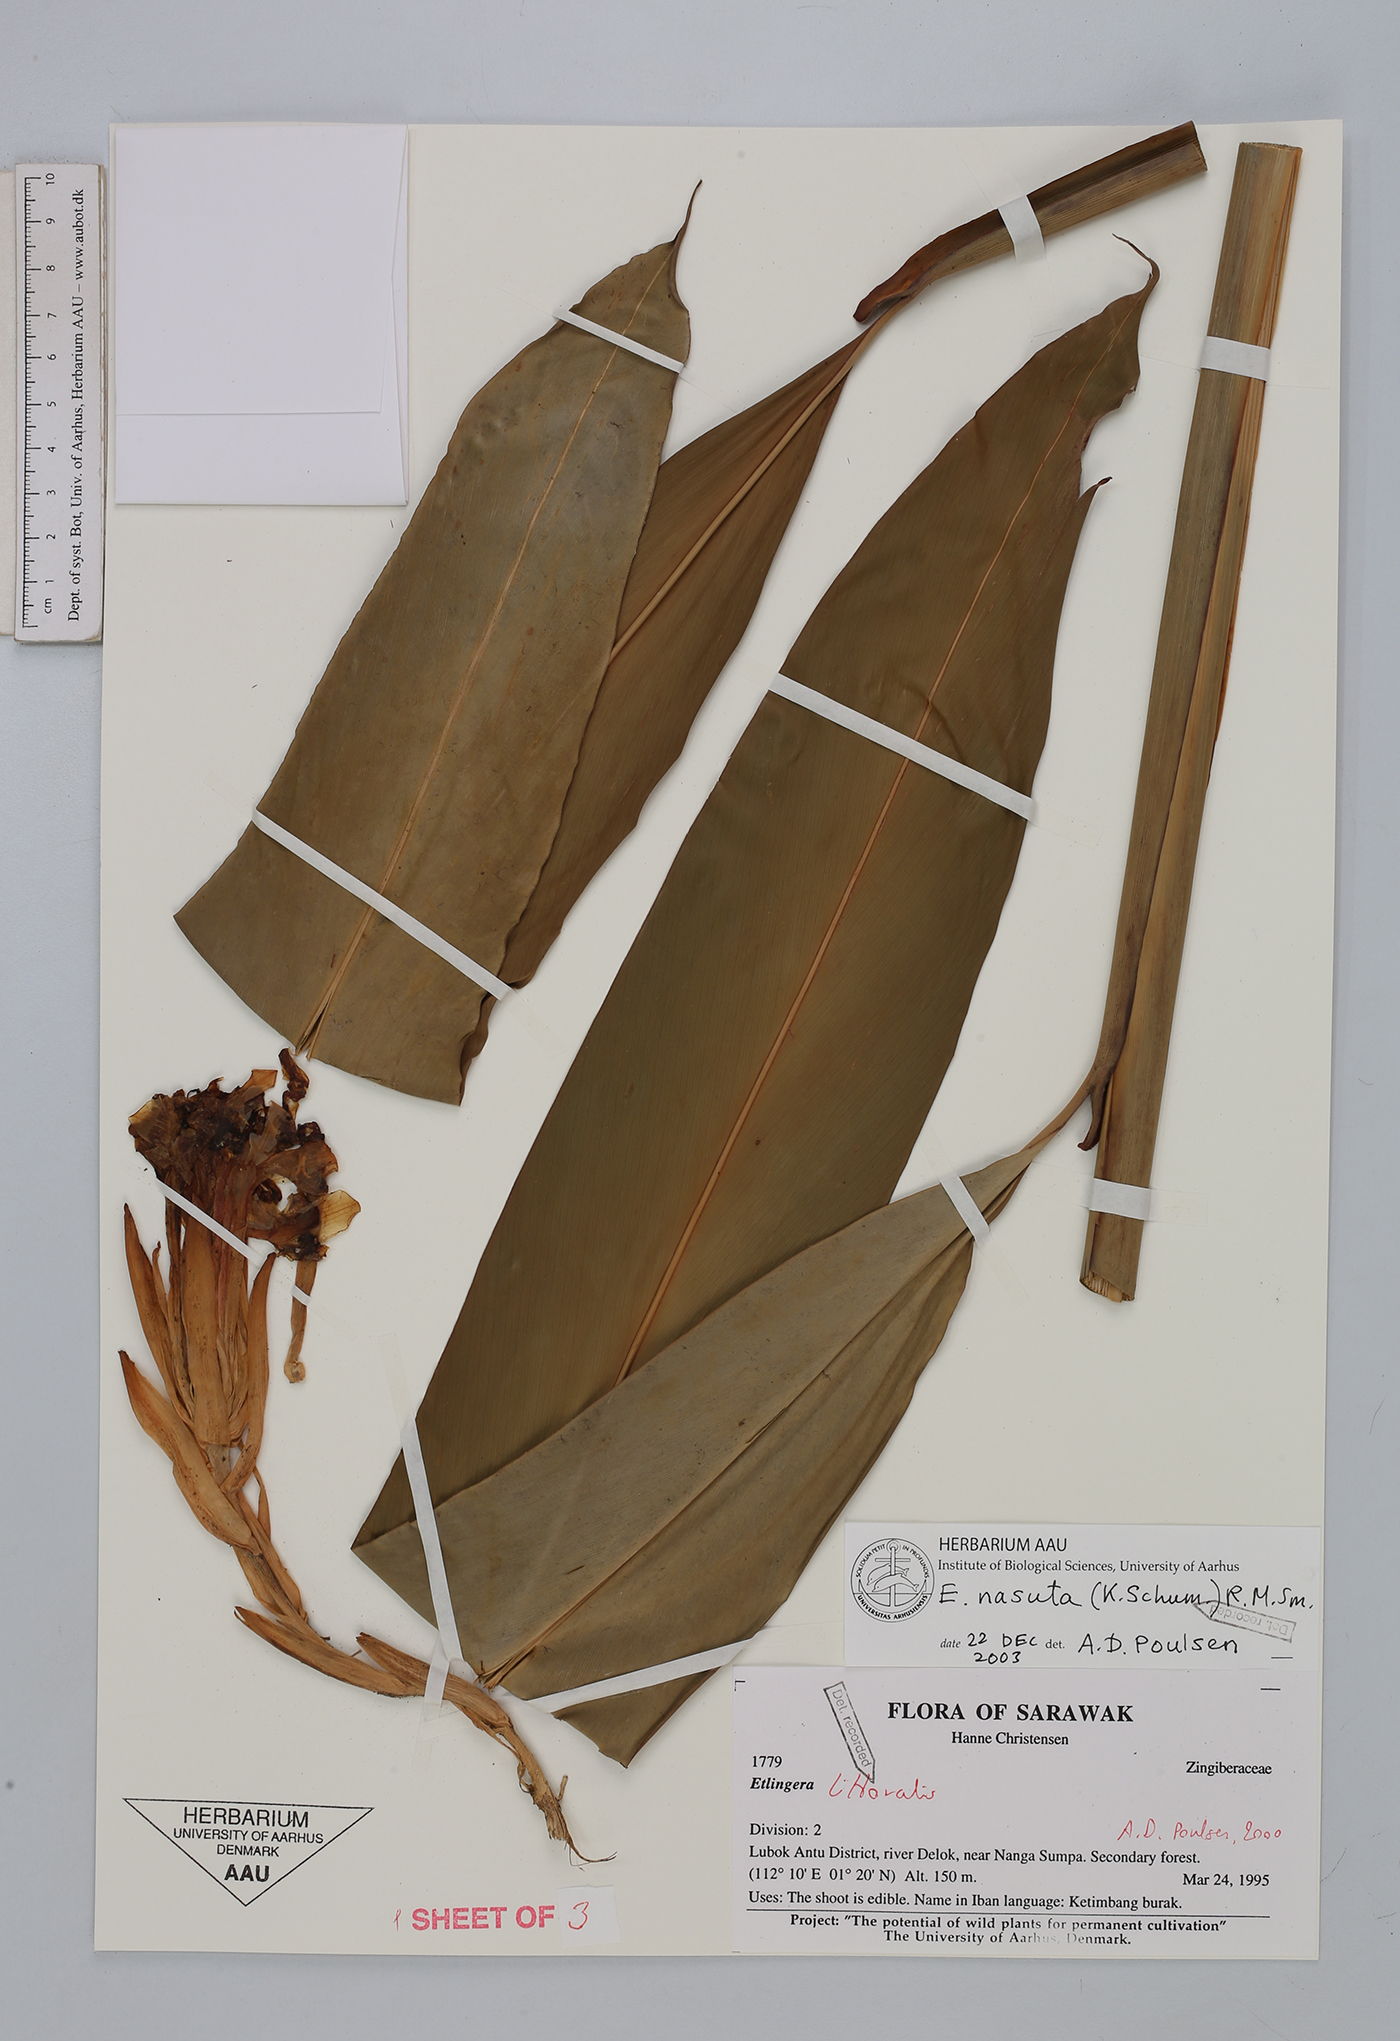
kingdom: Plantae
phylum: Tracheophyta
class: Liliopsida
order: Zingiberales
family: Zingiberaceae
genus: Etlingera
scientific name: Etlingera nasuta
